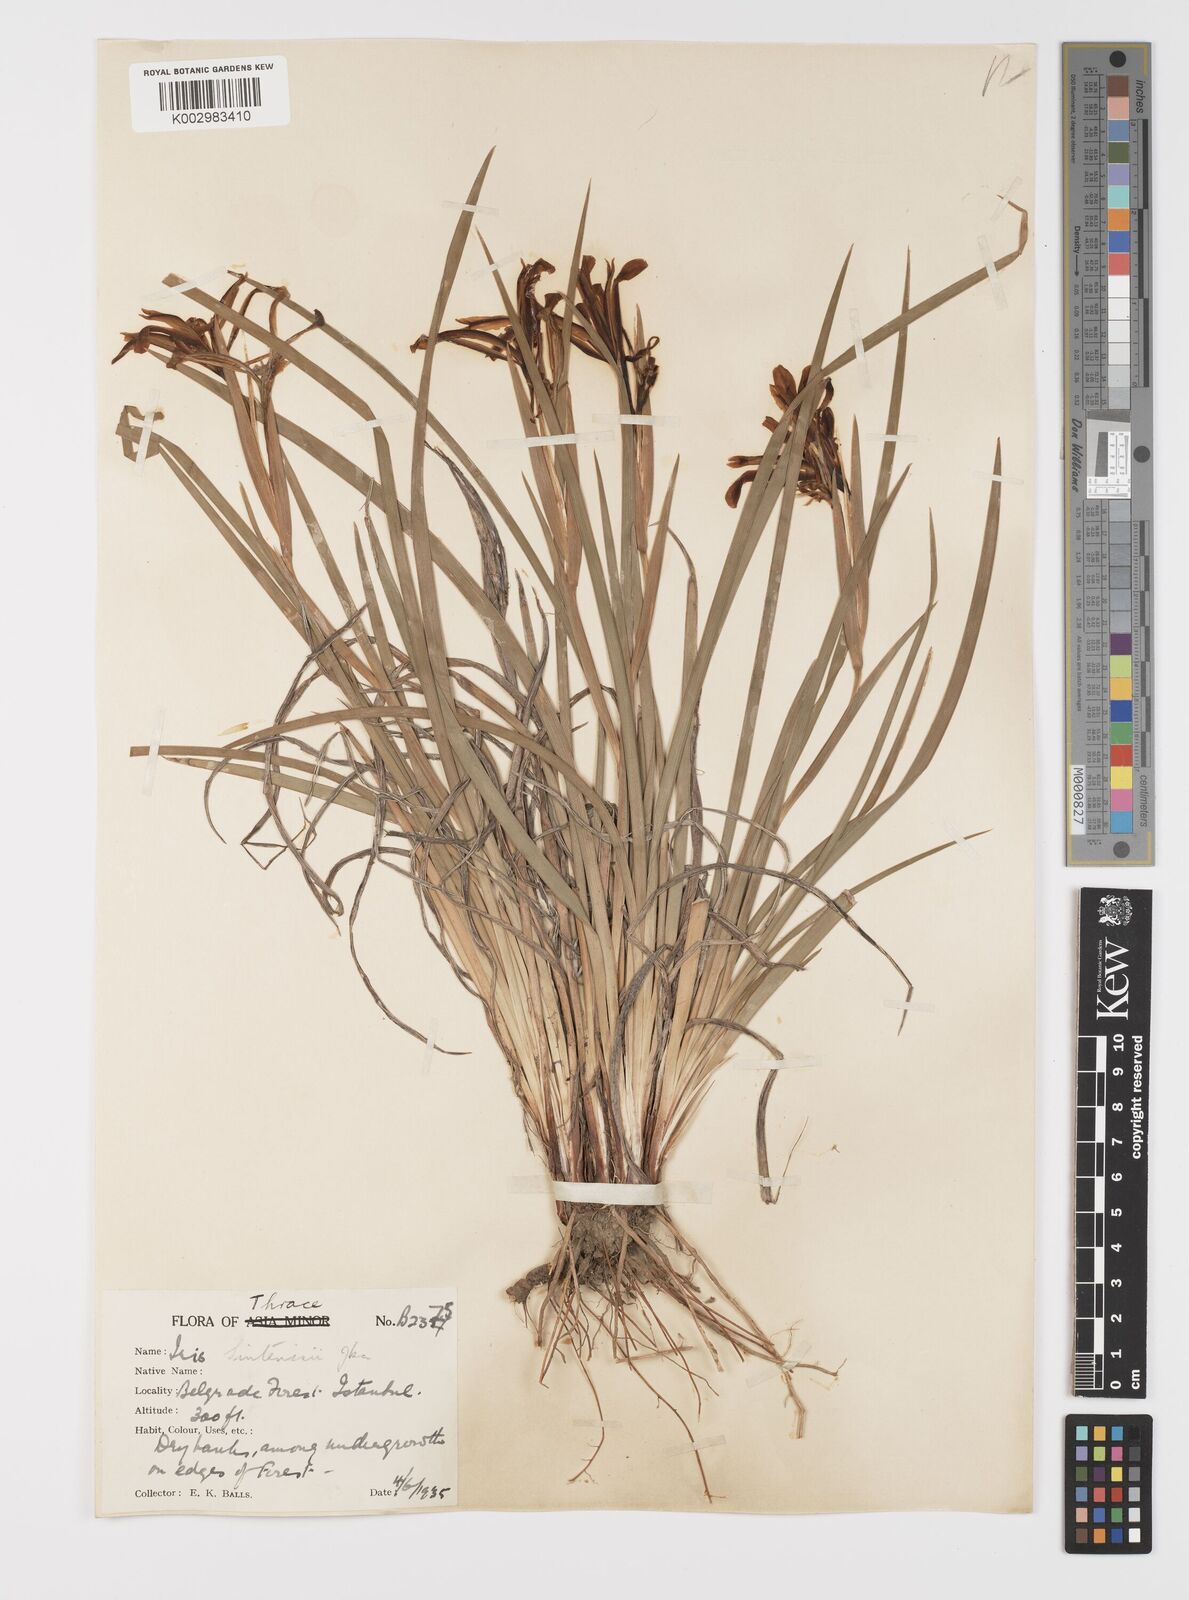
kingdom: Plantae
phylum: Tracheophyta
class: Liliopsida
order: Asparagales
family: Iridaceae
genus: Iris
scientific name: Iris sintenisii
